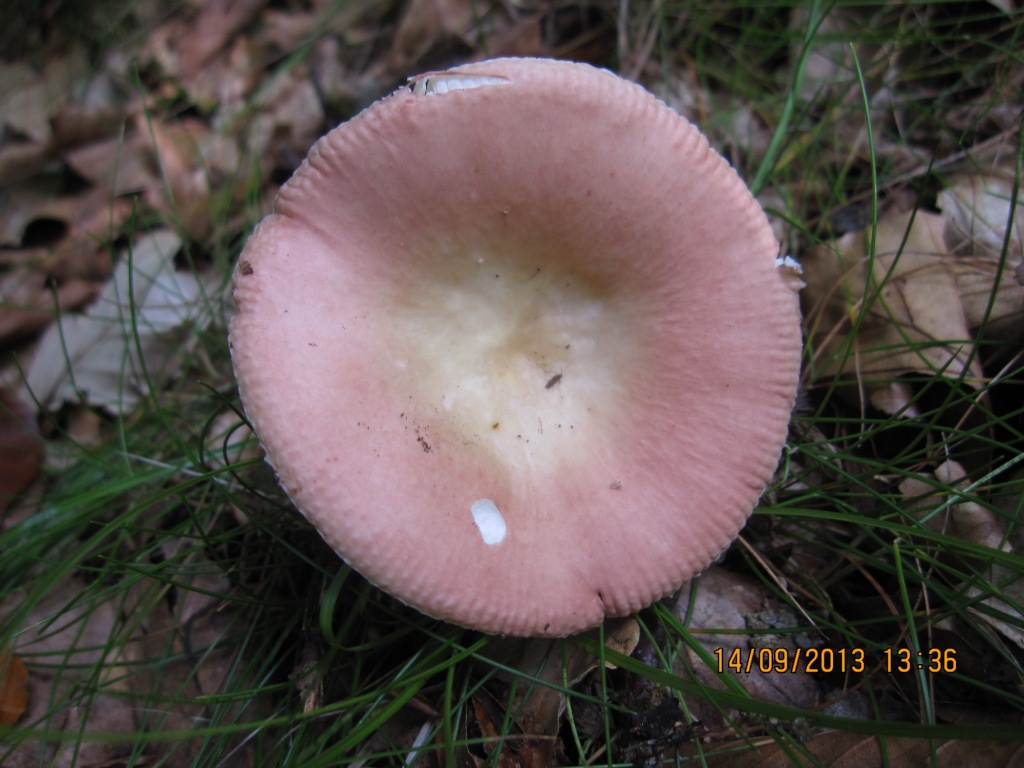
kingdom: Fungi
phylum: Basidiomycota
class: Agaricomycetes
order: Russulales
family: Russulaceae
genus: Russula
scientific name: Russula veternosa
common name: blødkødet skørhat
